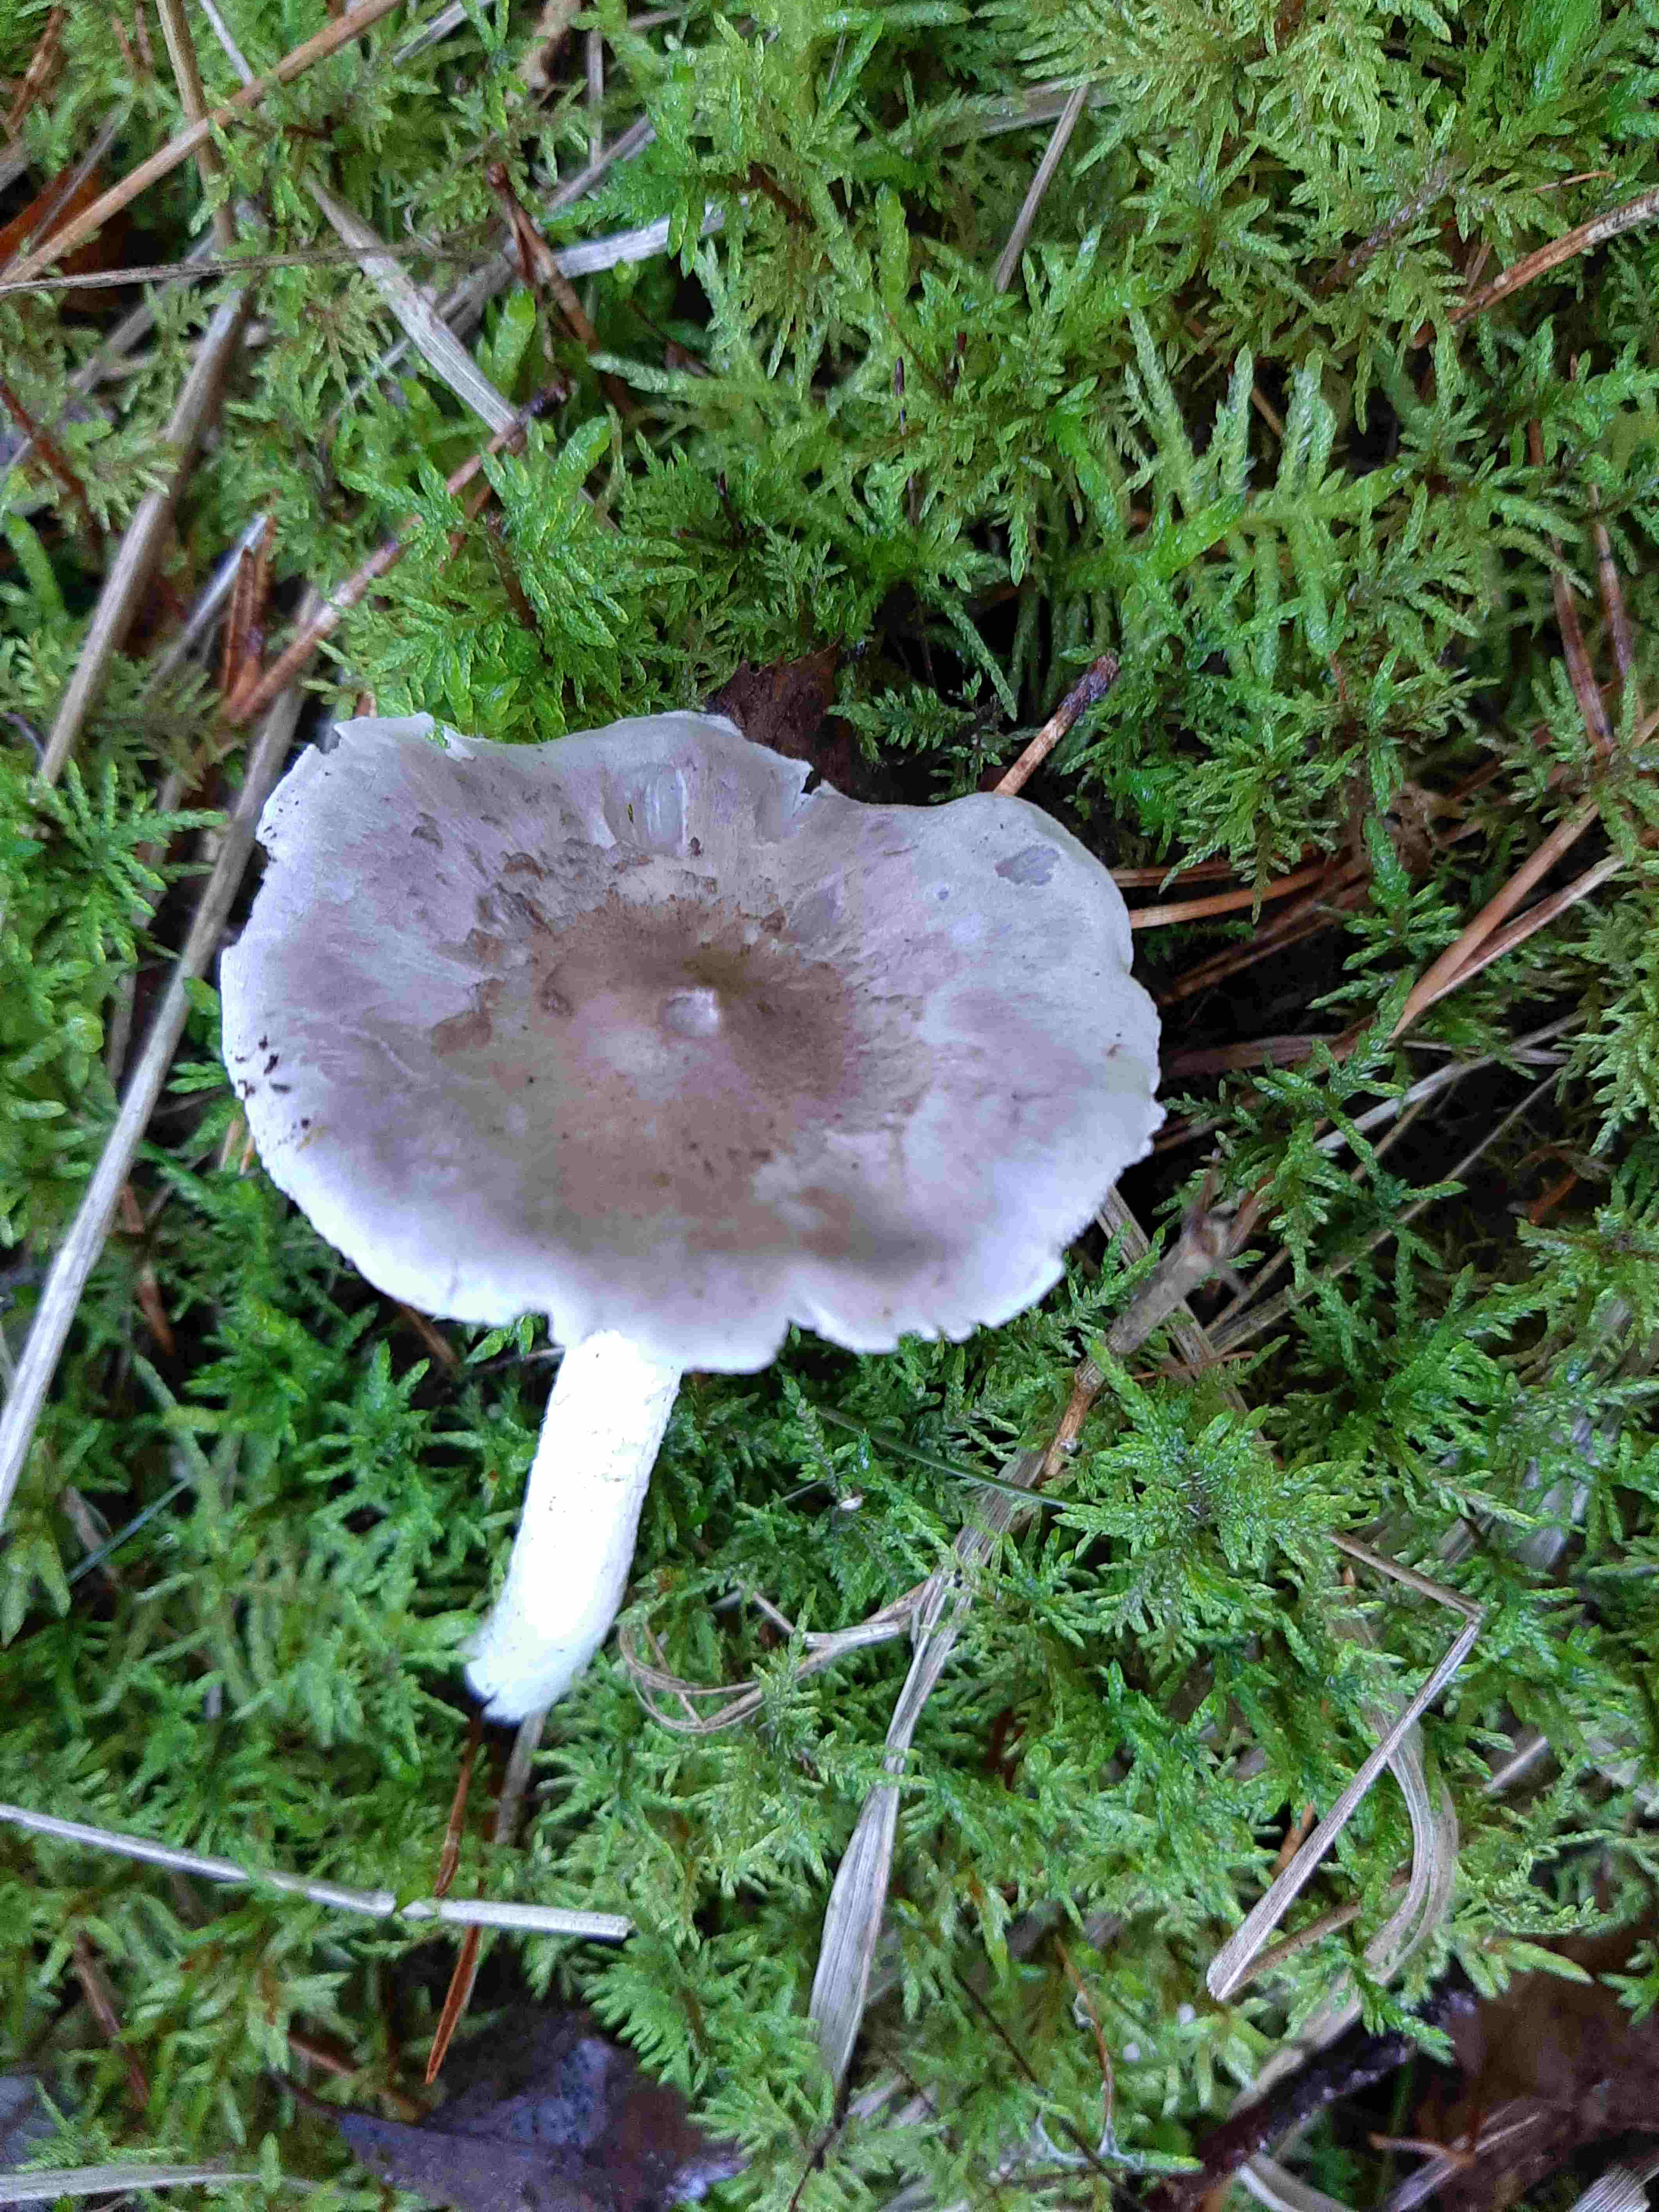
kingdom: Fungi
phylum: Basidiomycota
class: Agaricomycetes
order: Agaricales
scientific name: Agaricales
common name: champignonordenen
